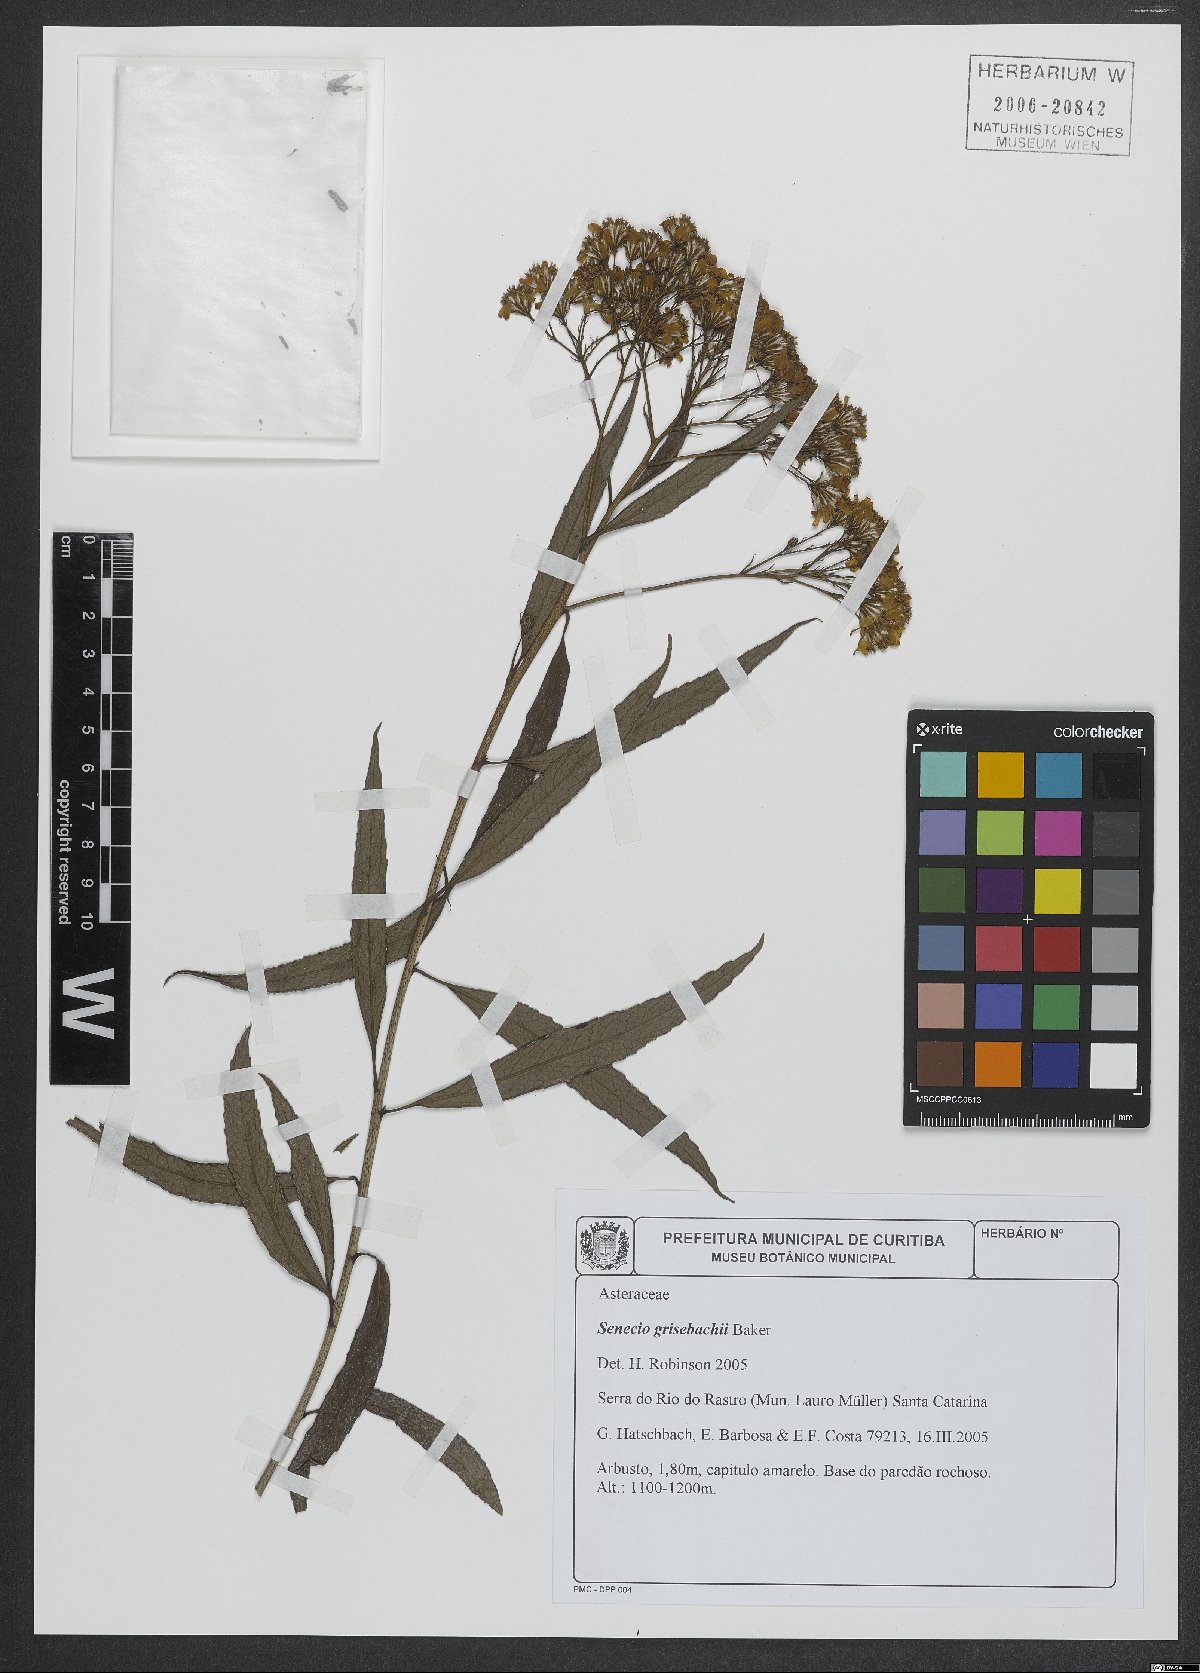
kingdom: Plantae
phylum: Tracheophyta
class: Magnoliopsida
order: Asterales
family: Asteraceae
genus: Senecio
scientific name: Senecio grisebachii
